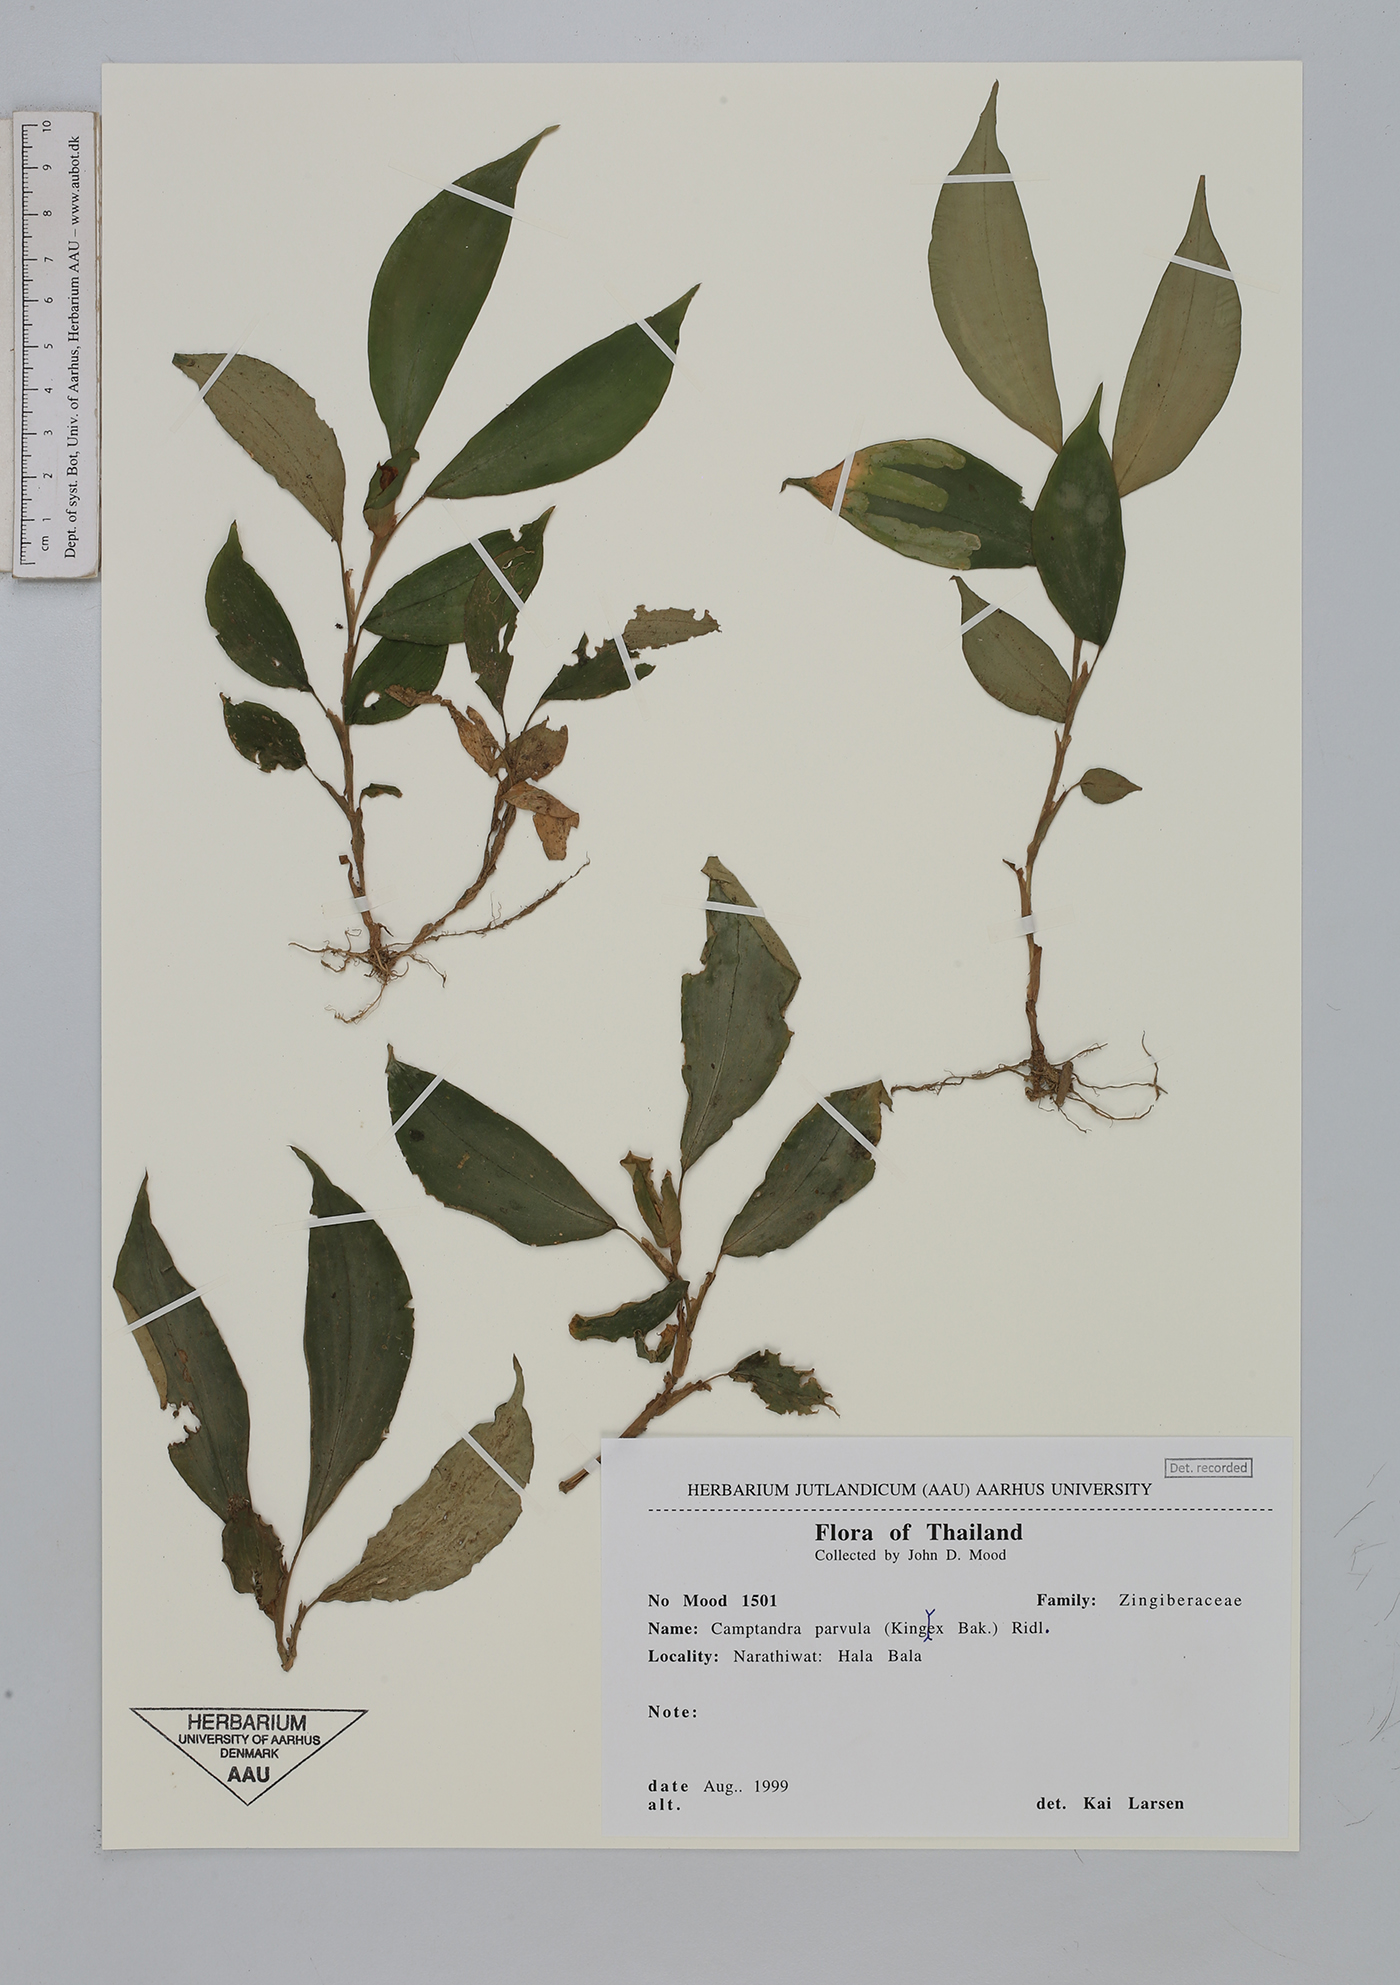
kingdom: Plantae
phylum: Tracheophyta
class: Liliopsida
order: Zingiberales
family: Zingiberaceae
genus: Camptandra
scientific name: Camptandra parvula
